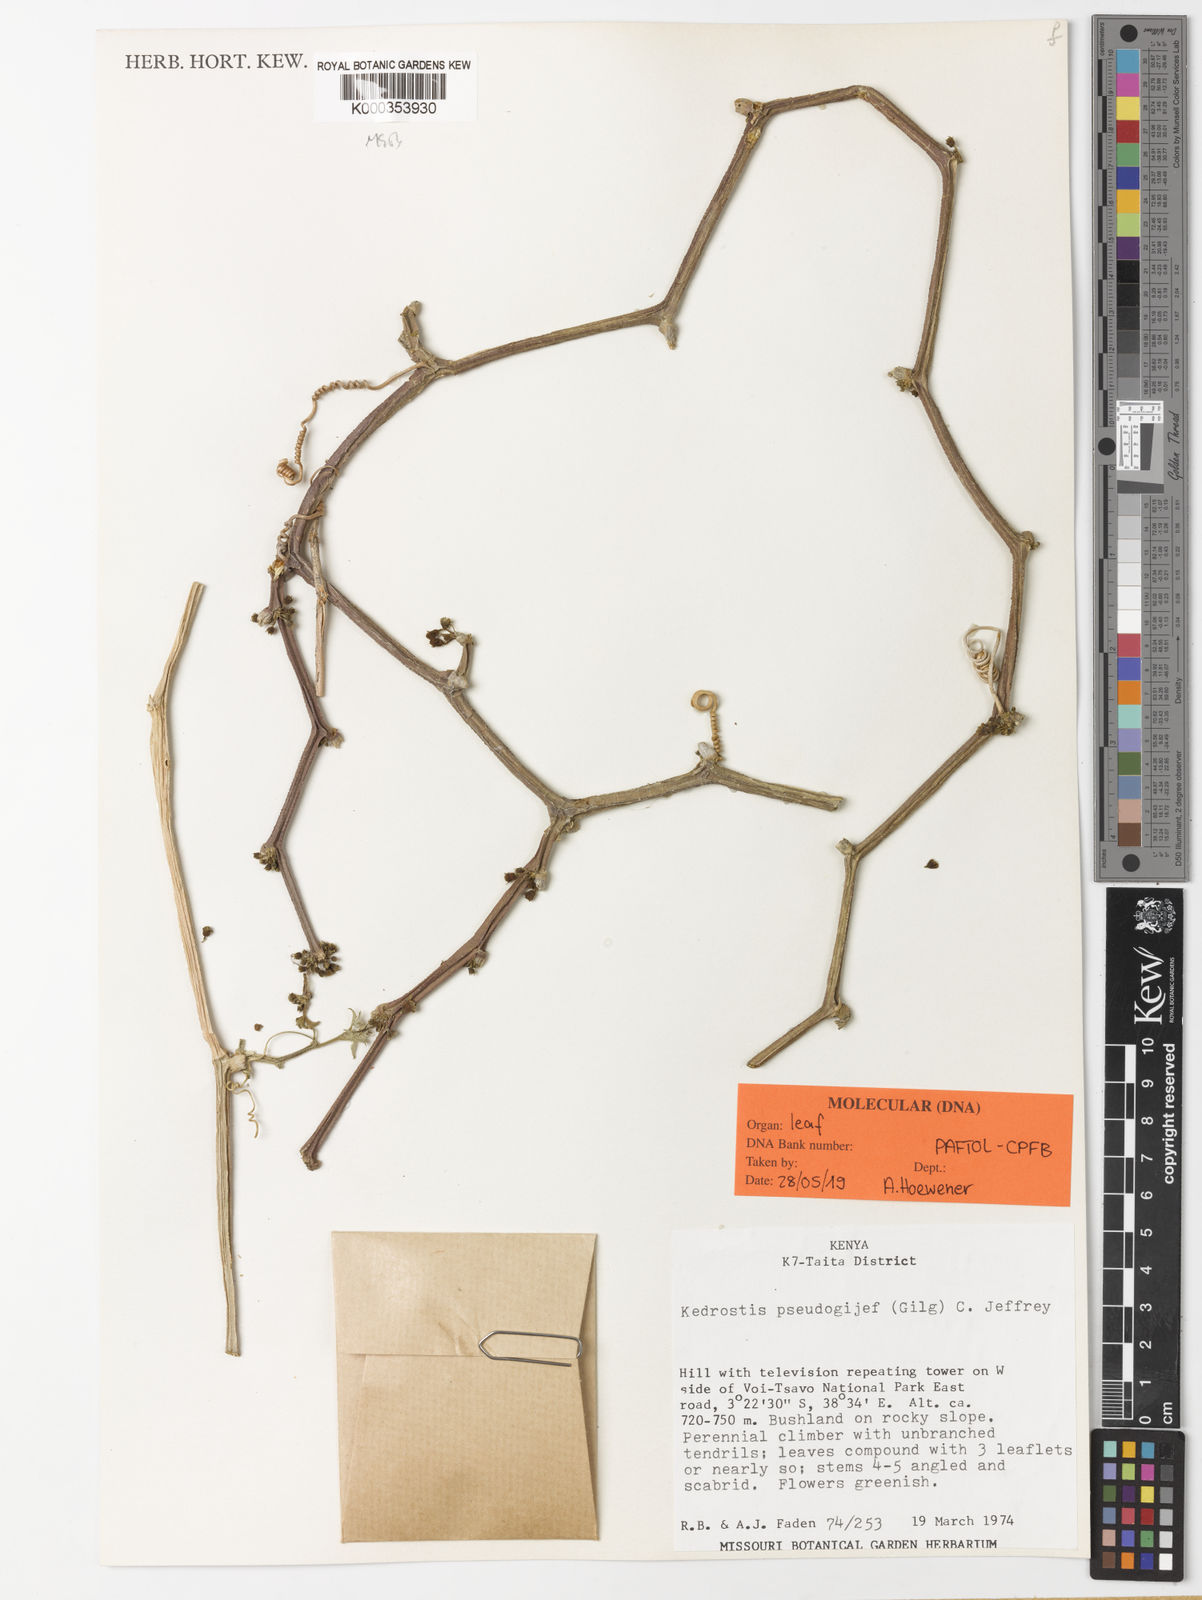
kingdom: Plantae
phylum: Tracheophyta
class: Magnoliopsida
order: Cucurbitales
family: Cucurbitaceae
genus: Kedrostis
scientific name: Kedrostis pseudogijef
